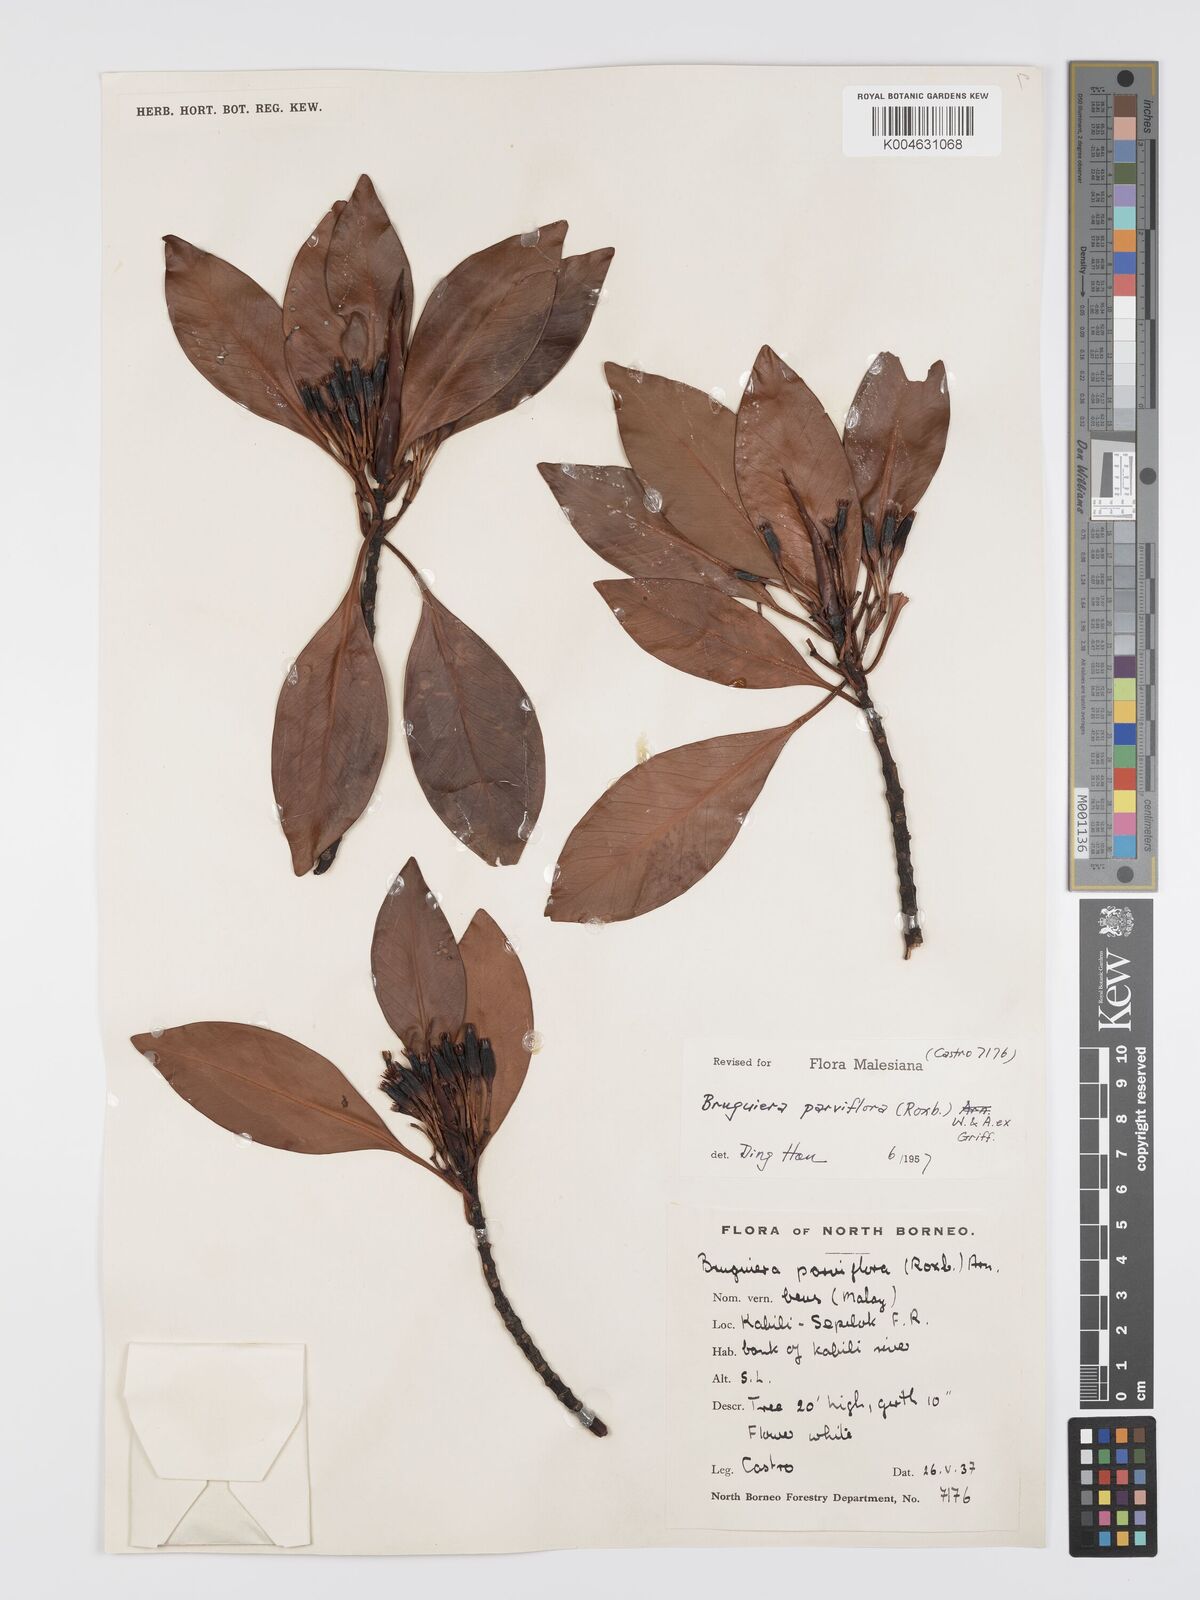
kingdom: Plantae
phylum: Tracheophyta
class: Magnoliopsida
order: Malpighiales
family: Rhizophoraceae
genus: Bruguiera
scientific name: Bruguiera parviflora
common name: Smallflower bruguiera
